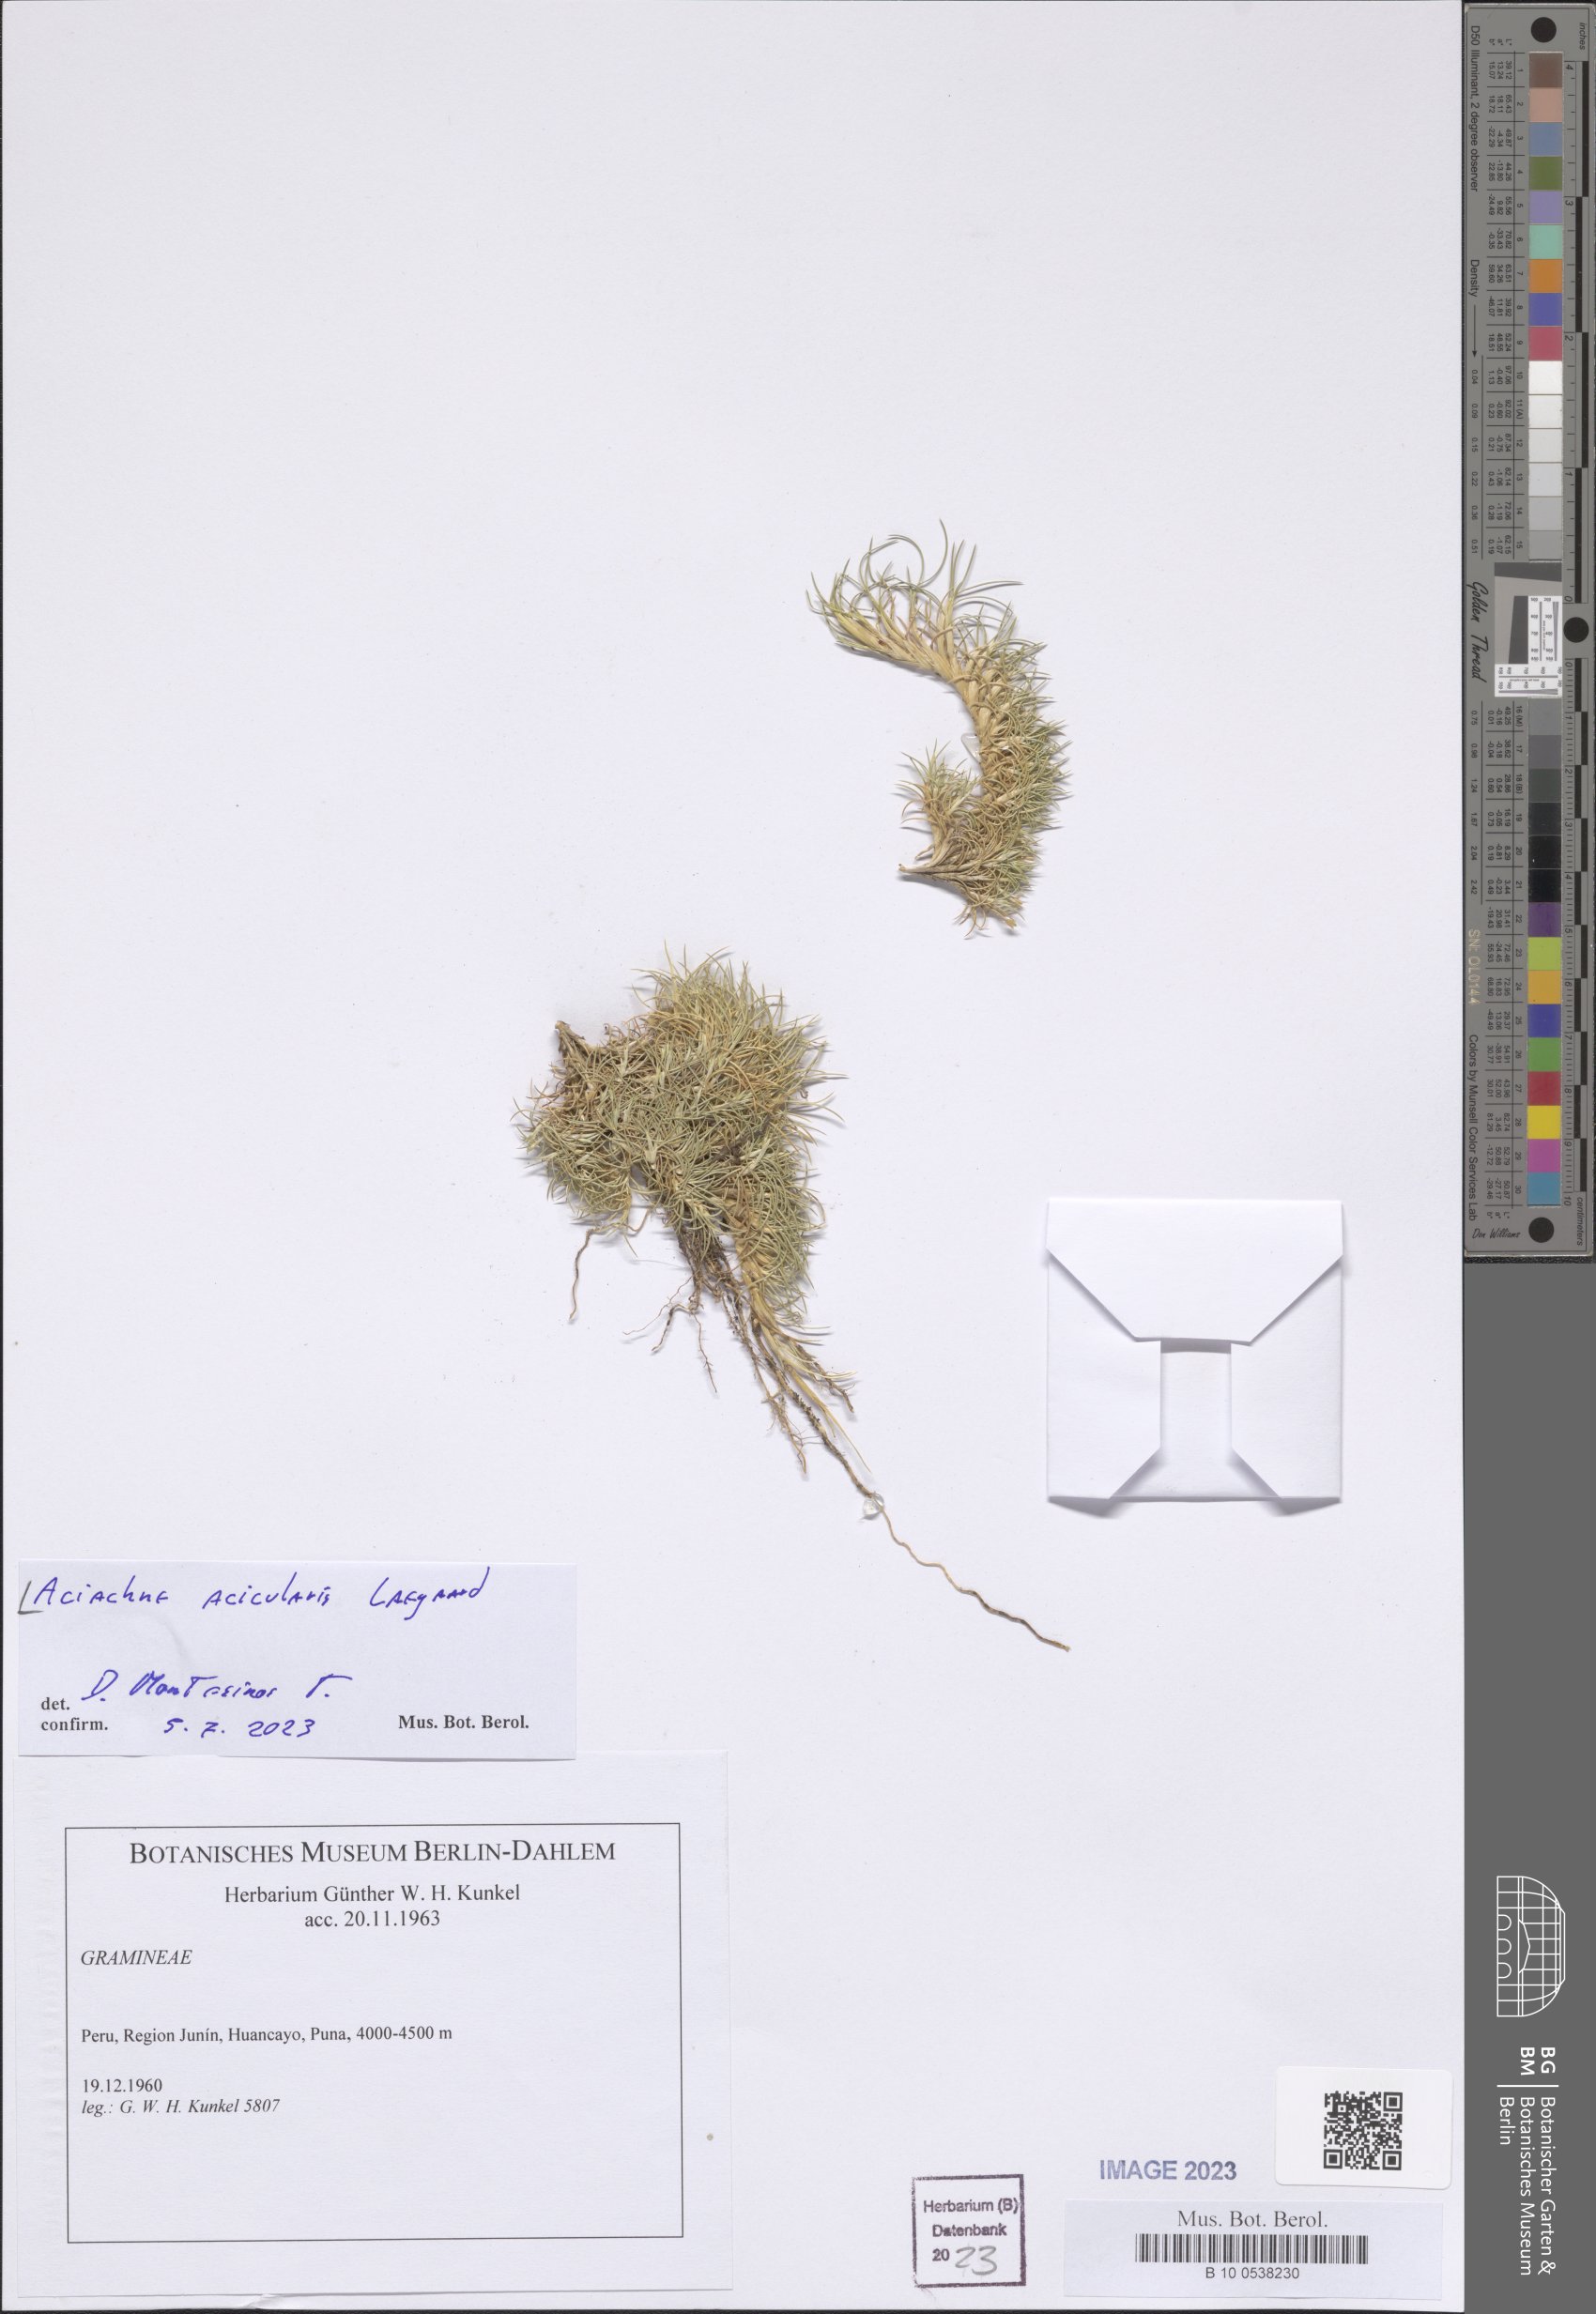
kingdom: Plantae
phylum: Tracheophyta
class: Liliopsida
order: Poales
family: Poaceae
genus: Aciachne
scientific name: Aciachne acicularis
